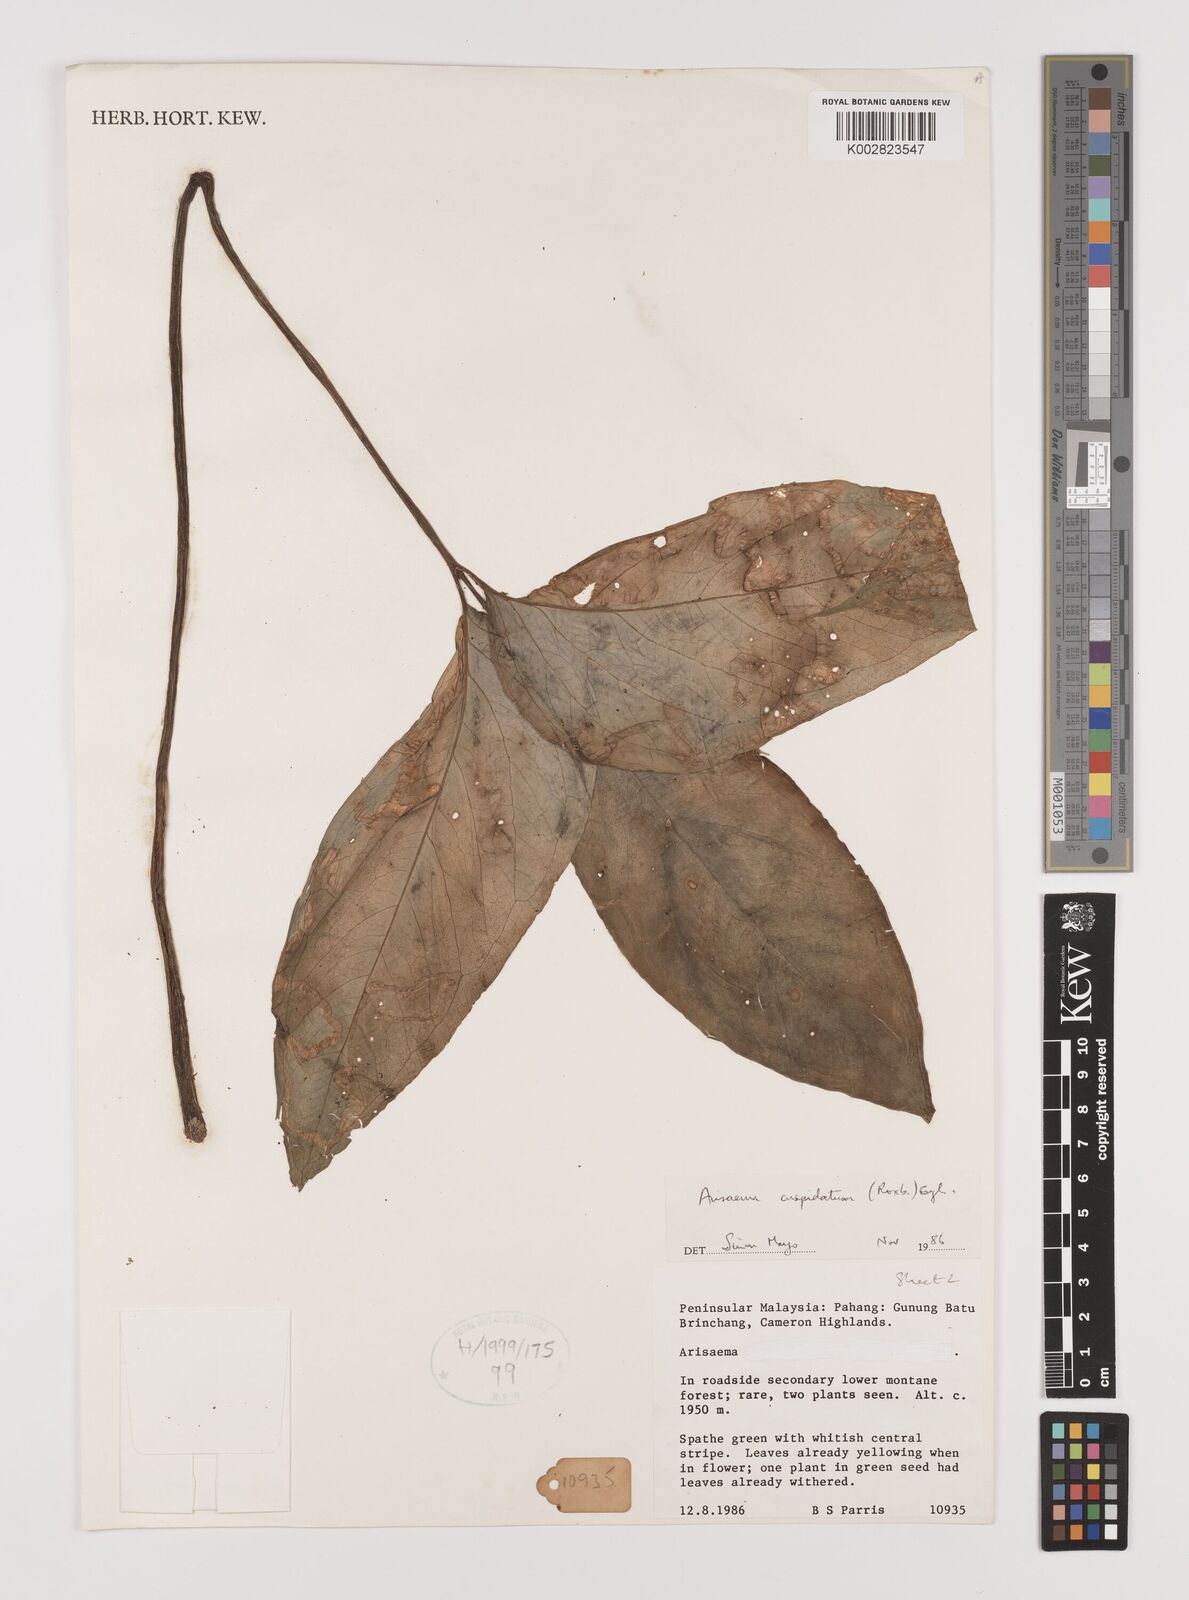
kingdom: Plantae
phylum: Tracheophyta
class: Liliopsida
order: Alismatales
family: Araceae
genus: Arisaema
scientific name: Arisaema roxburghii
